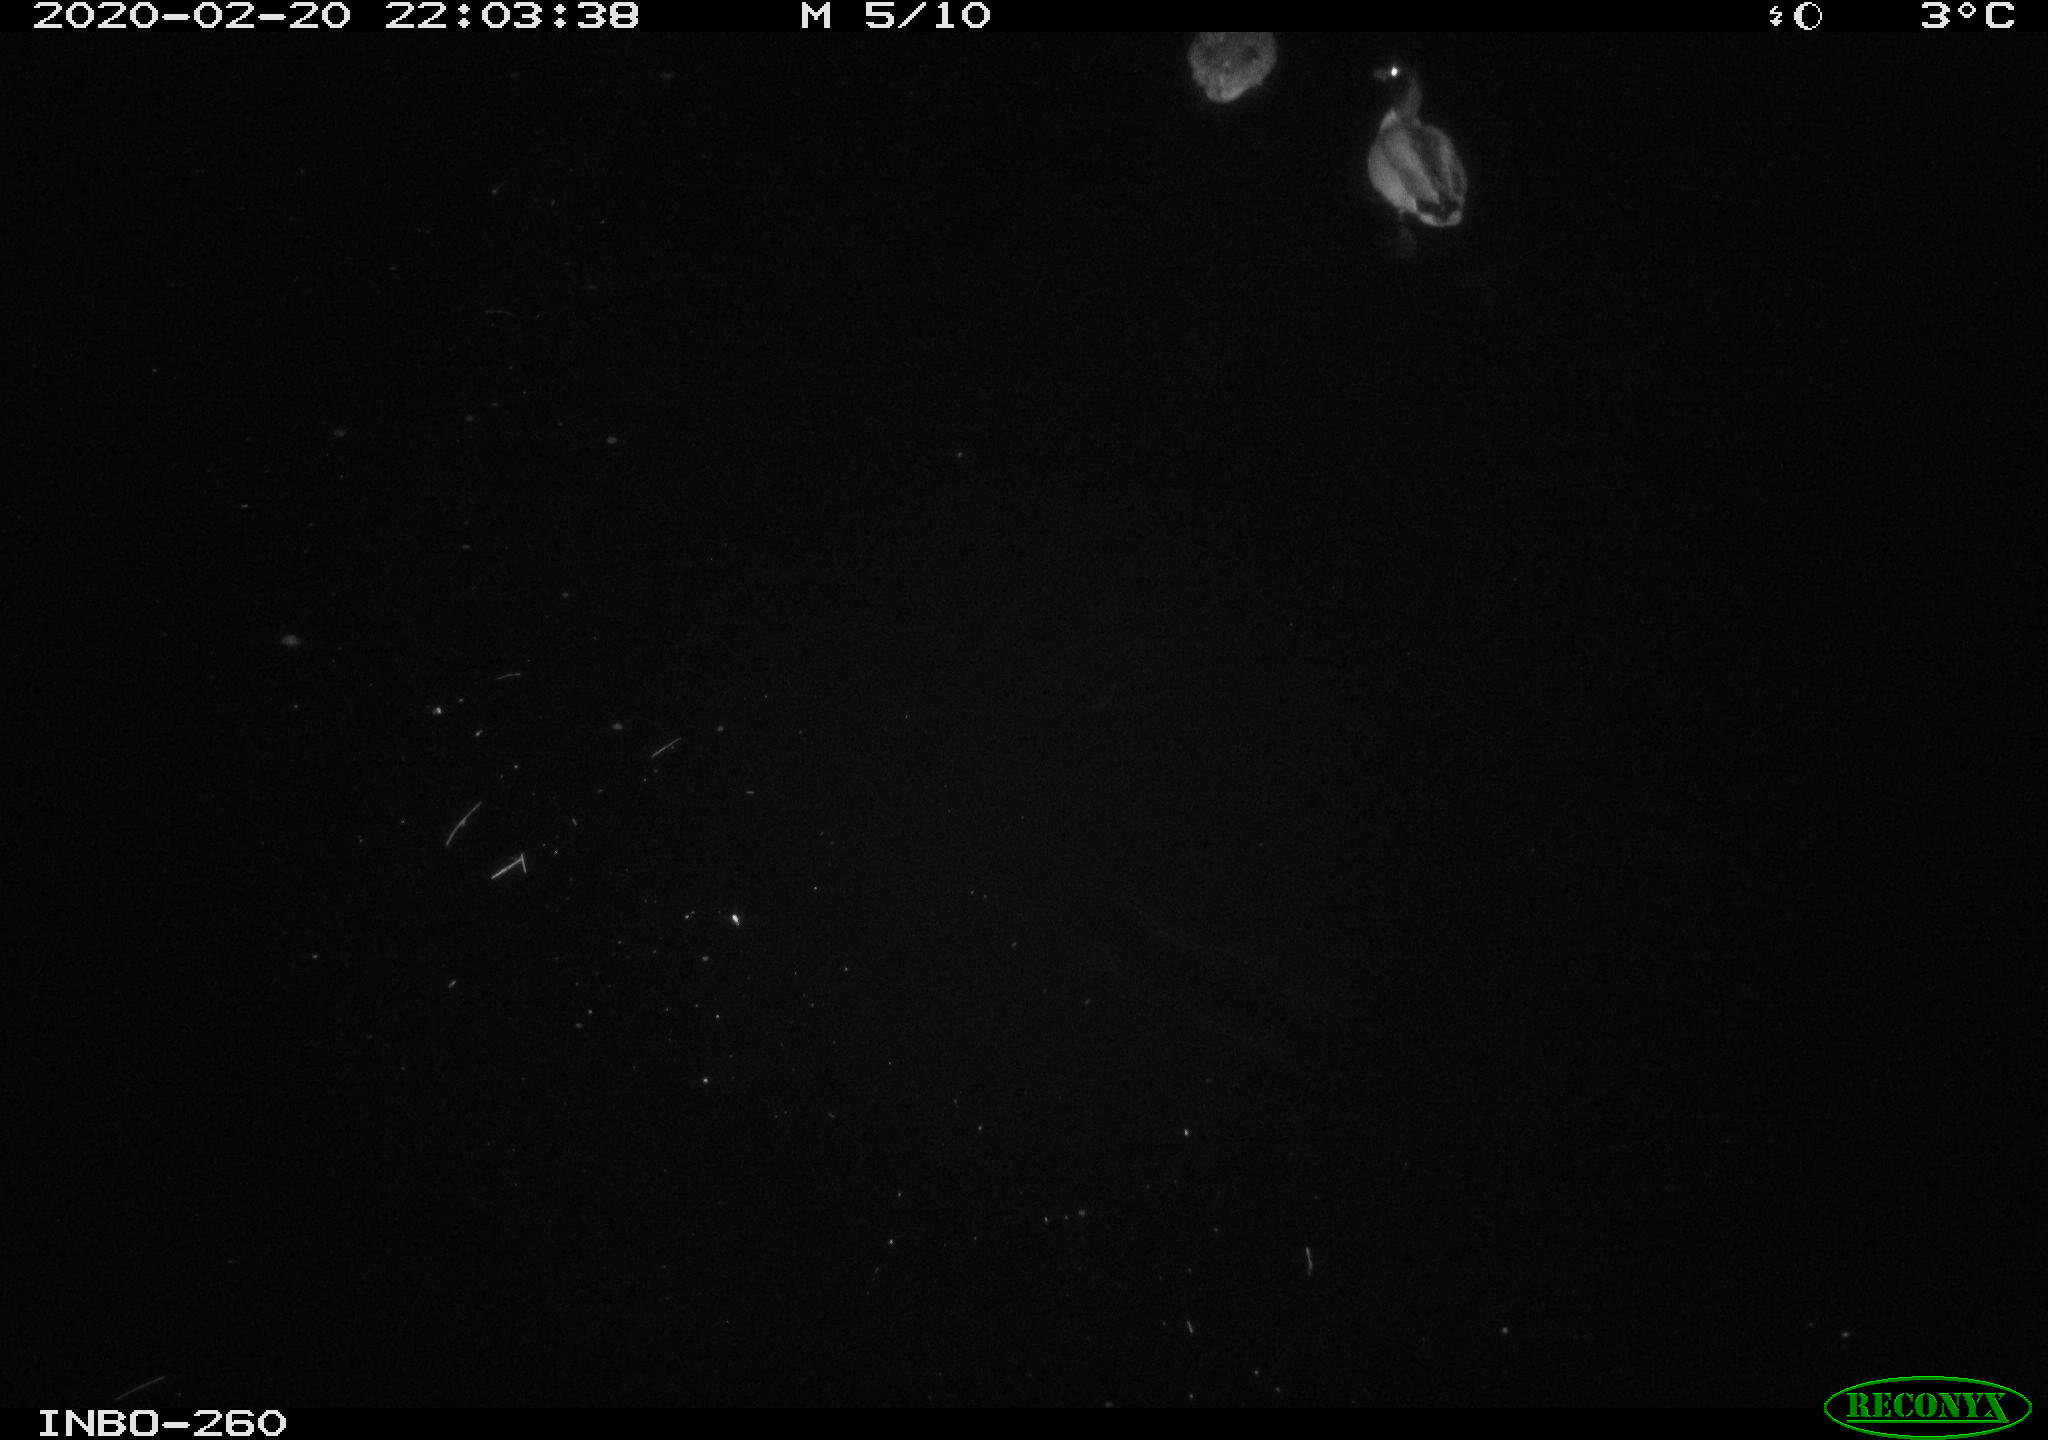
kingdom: Animalia
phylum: Chordata
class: Aves
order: Anseriformes
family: Anatidae
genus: Anas
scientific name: Anas platyrhynchos
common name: Mallard
